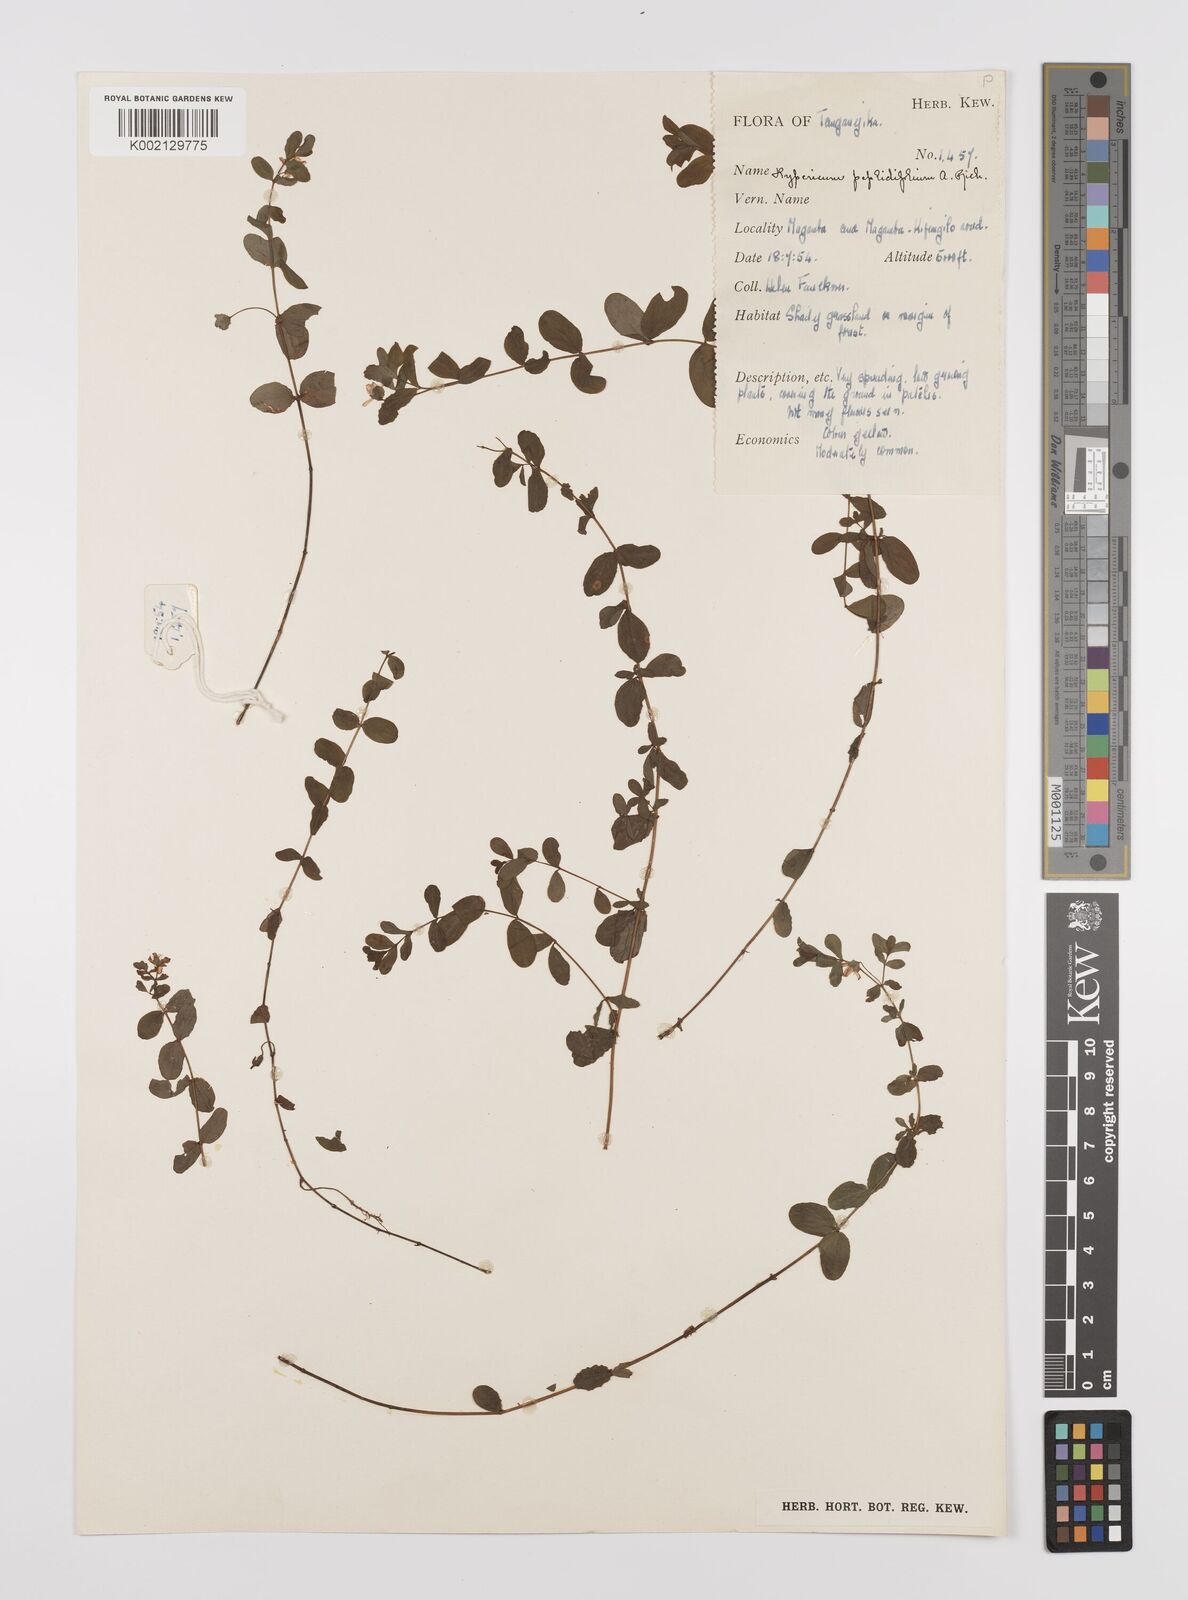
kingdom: Plantae
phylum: Tracheophyta
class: Magnoliopsida
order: Malpighiales
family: Hypericaceae
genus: Hypericum
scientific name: Hypericum peplidifolium
